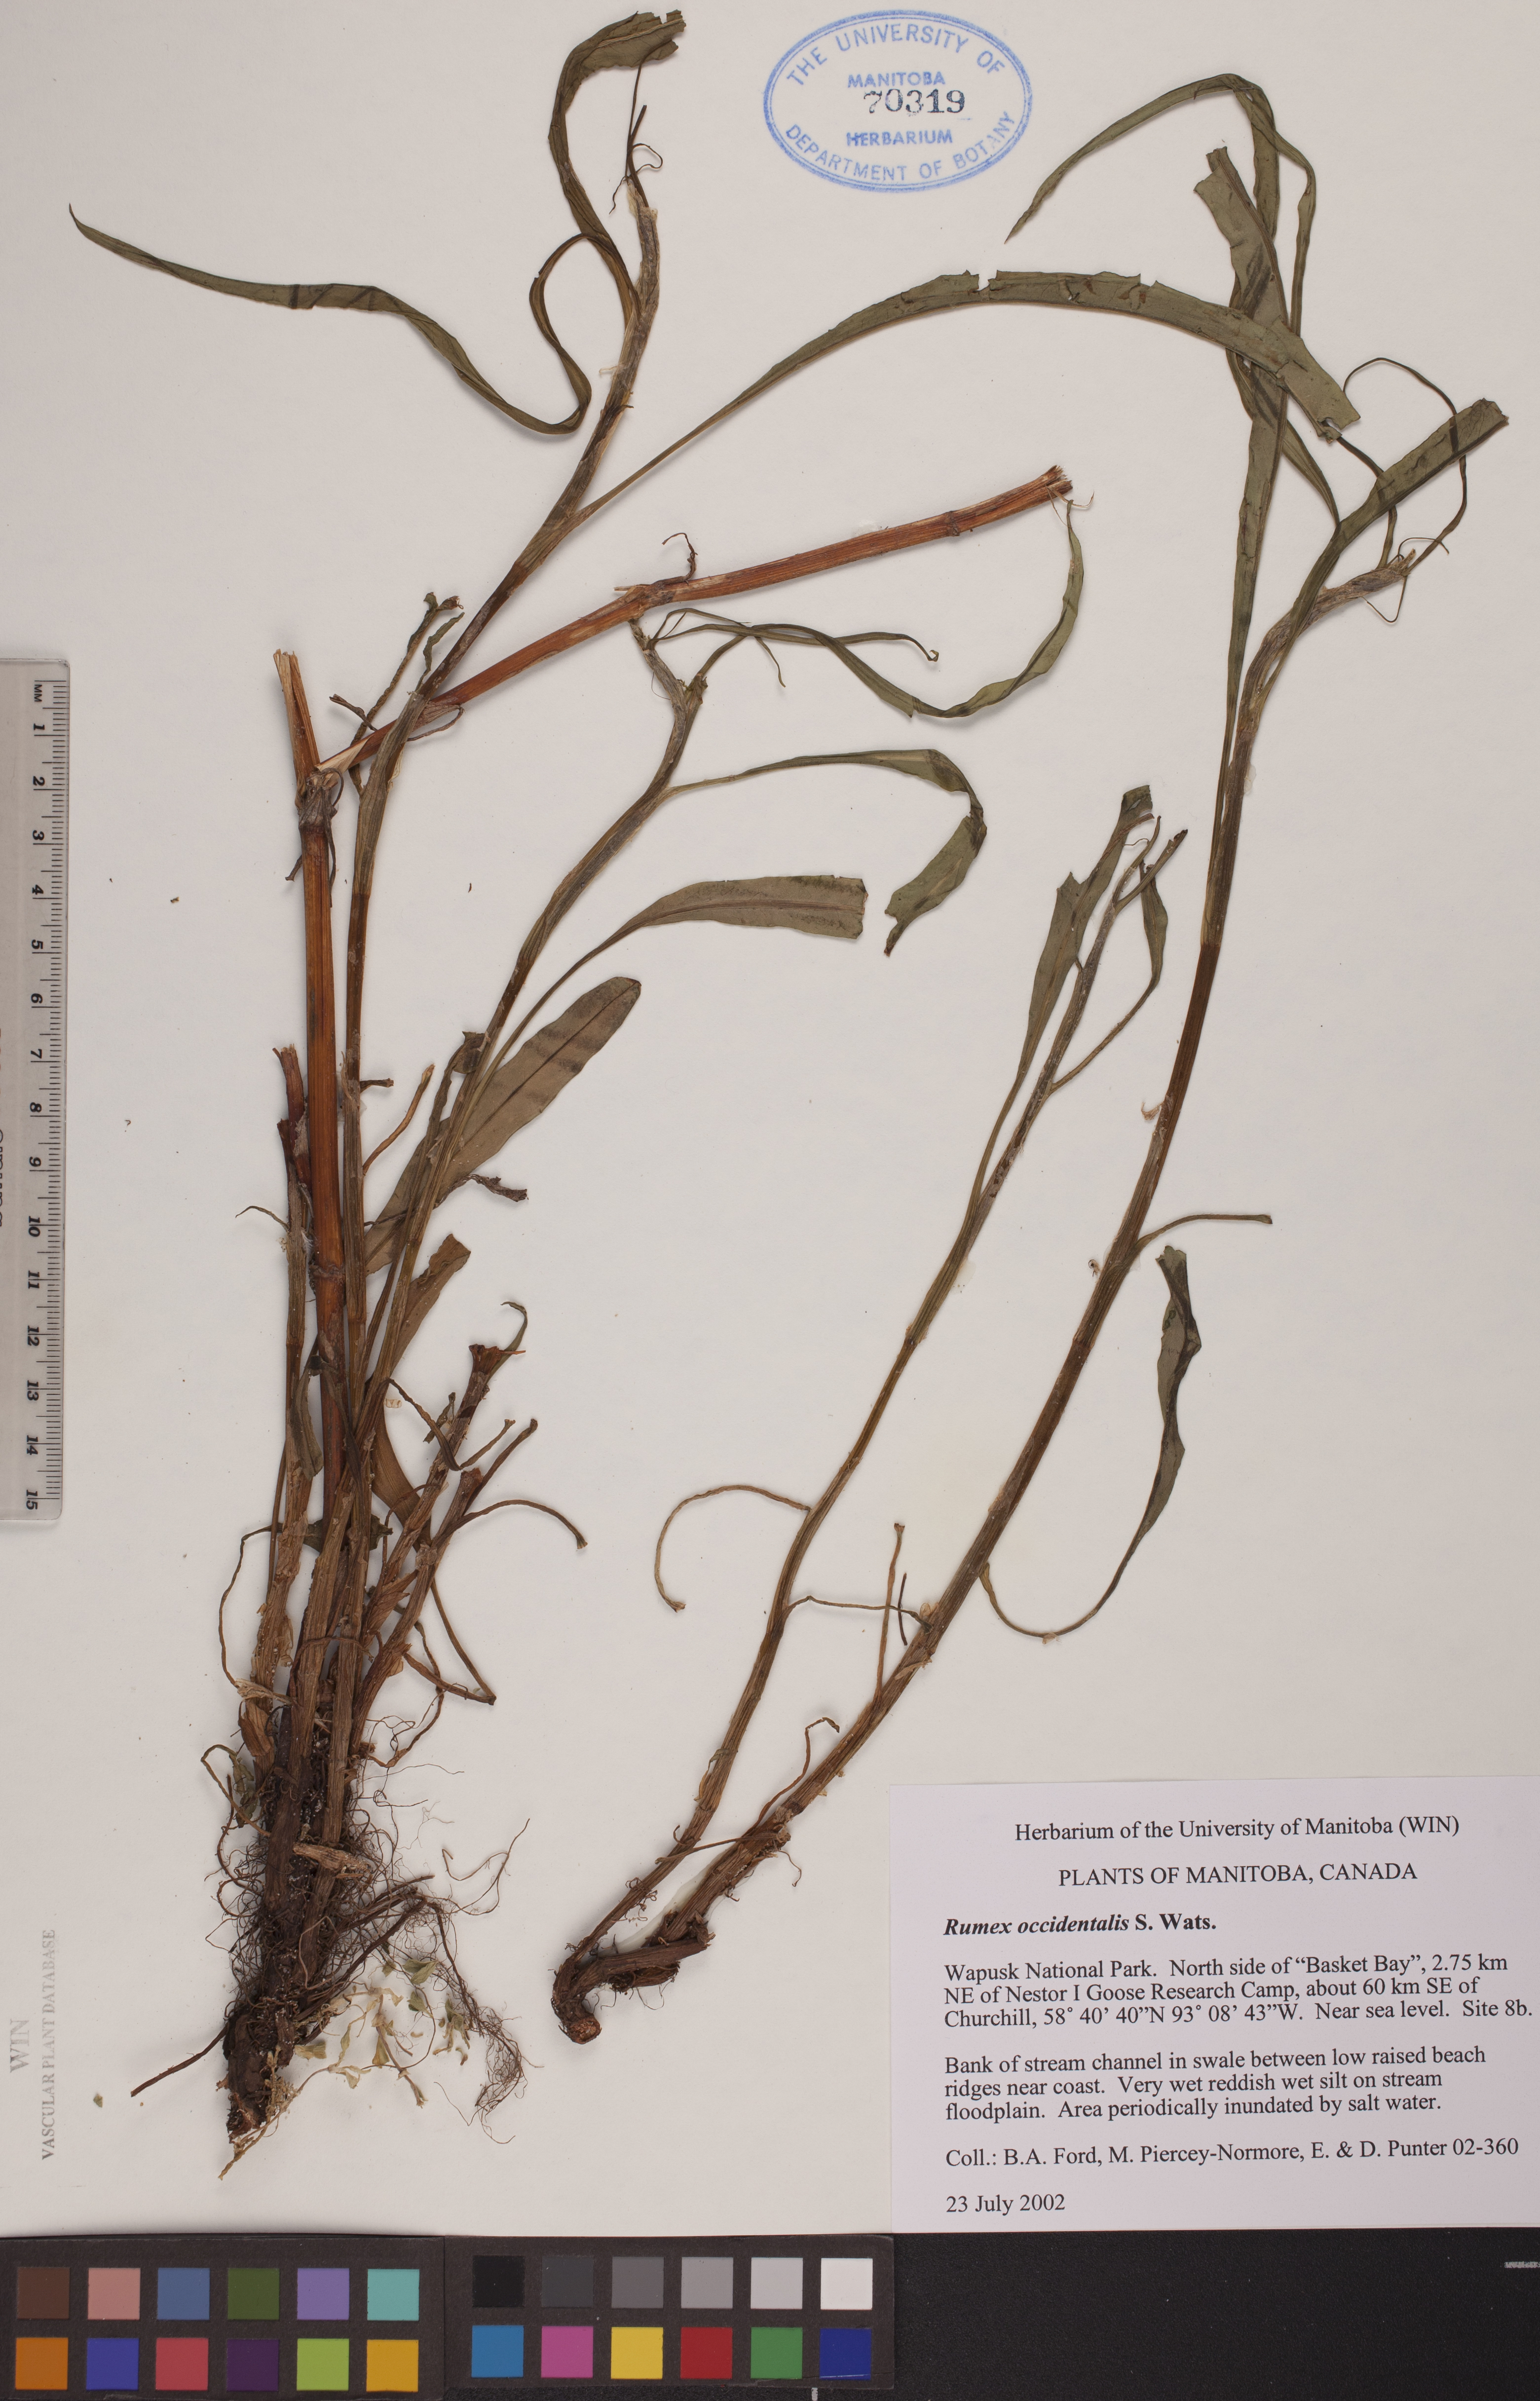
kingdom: Plantae
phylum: Tracheophyta
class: Magnoliopsida
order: Caryophyllales
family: Polygonaceae
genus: Rumex
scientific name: Rumex occidentalis
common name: Western dock
